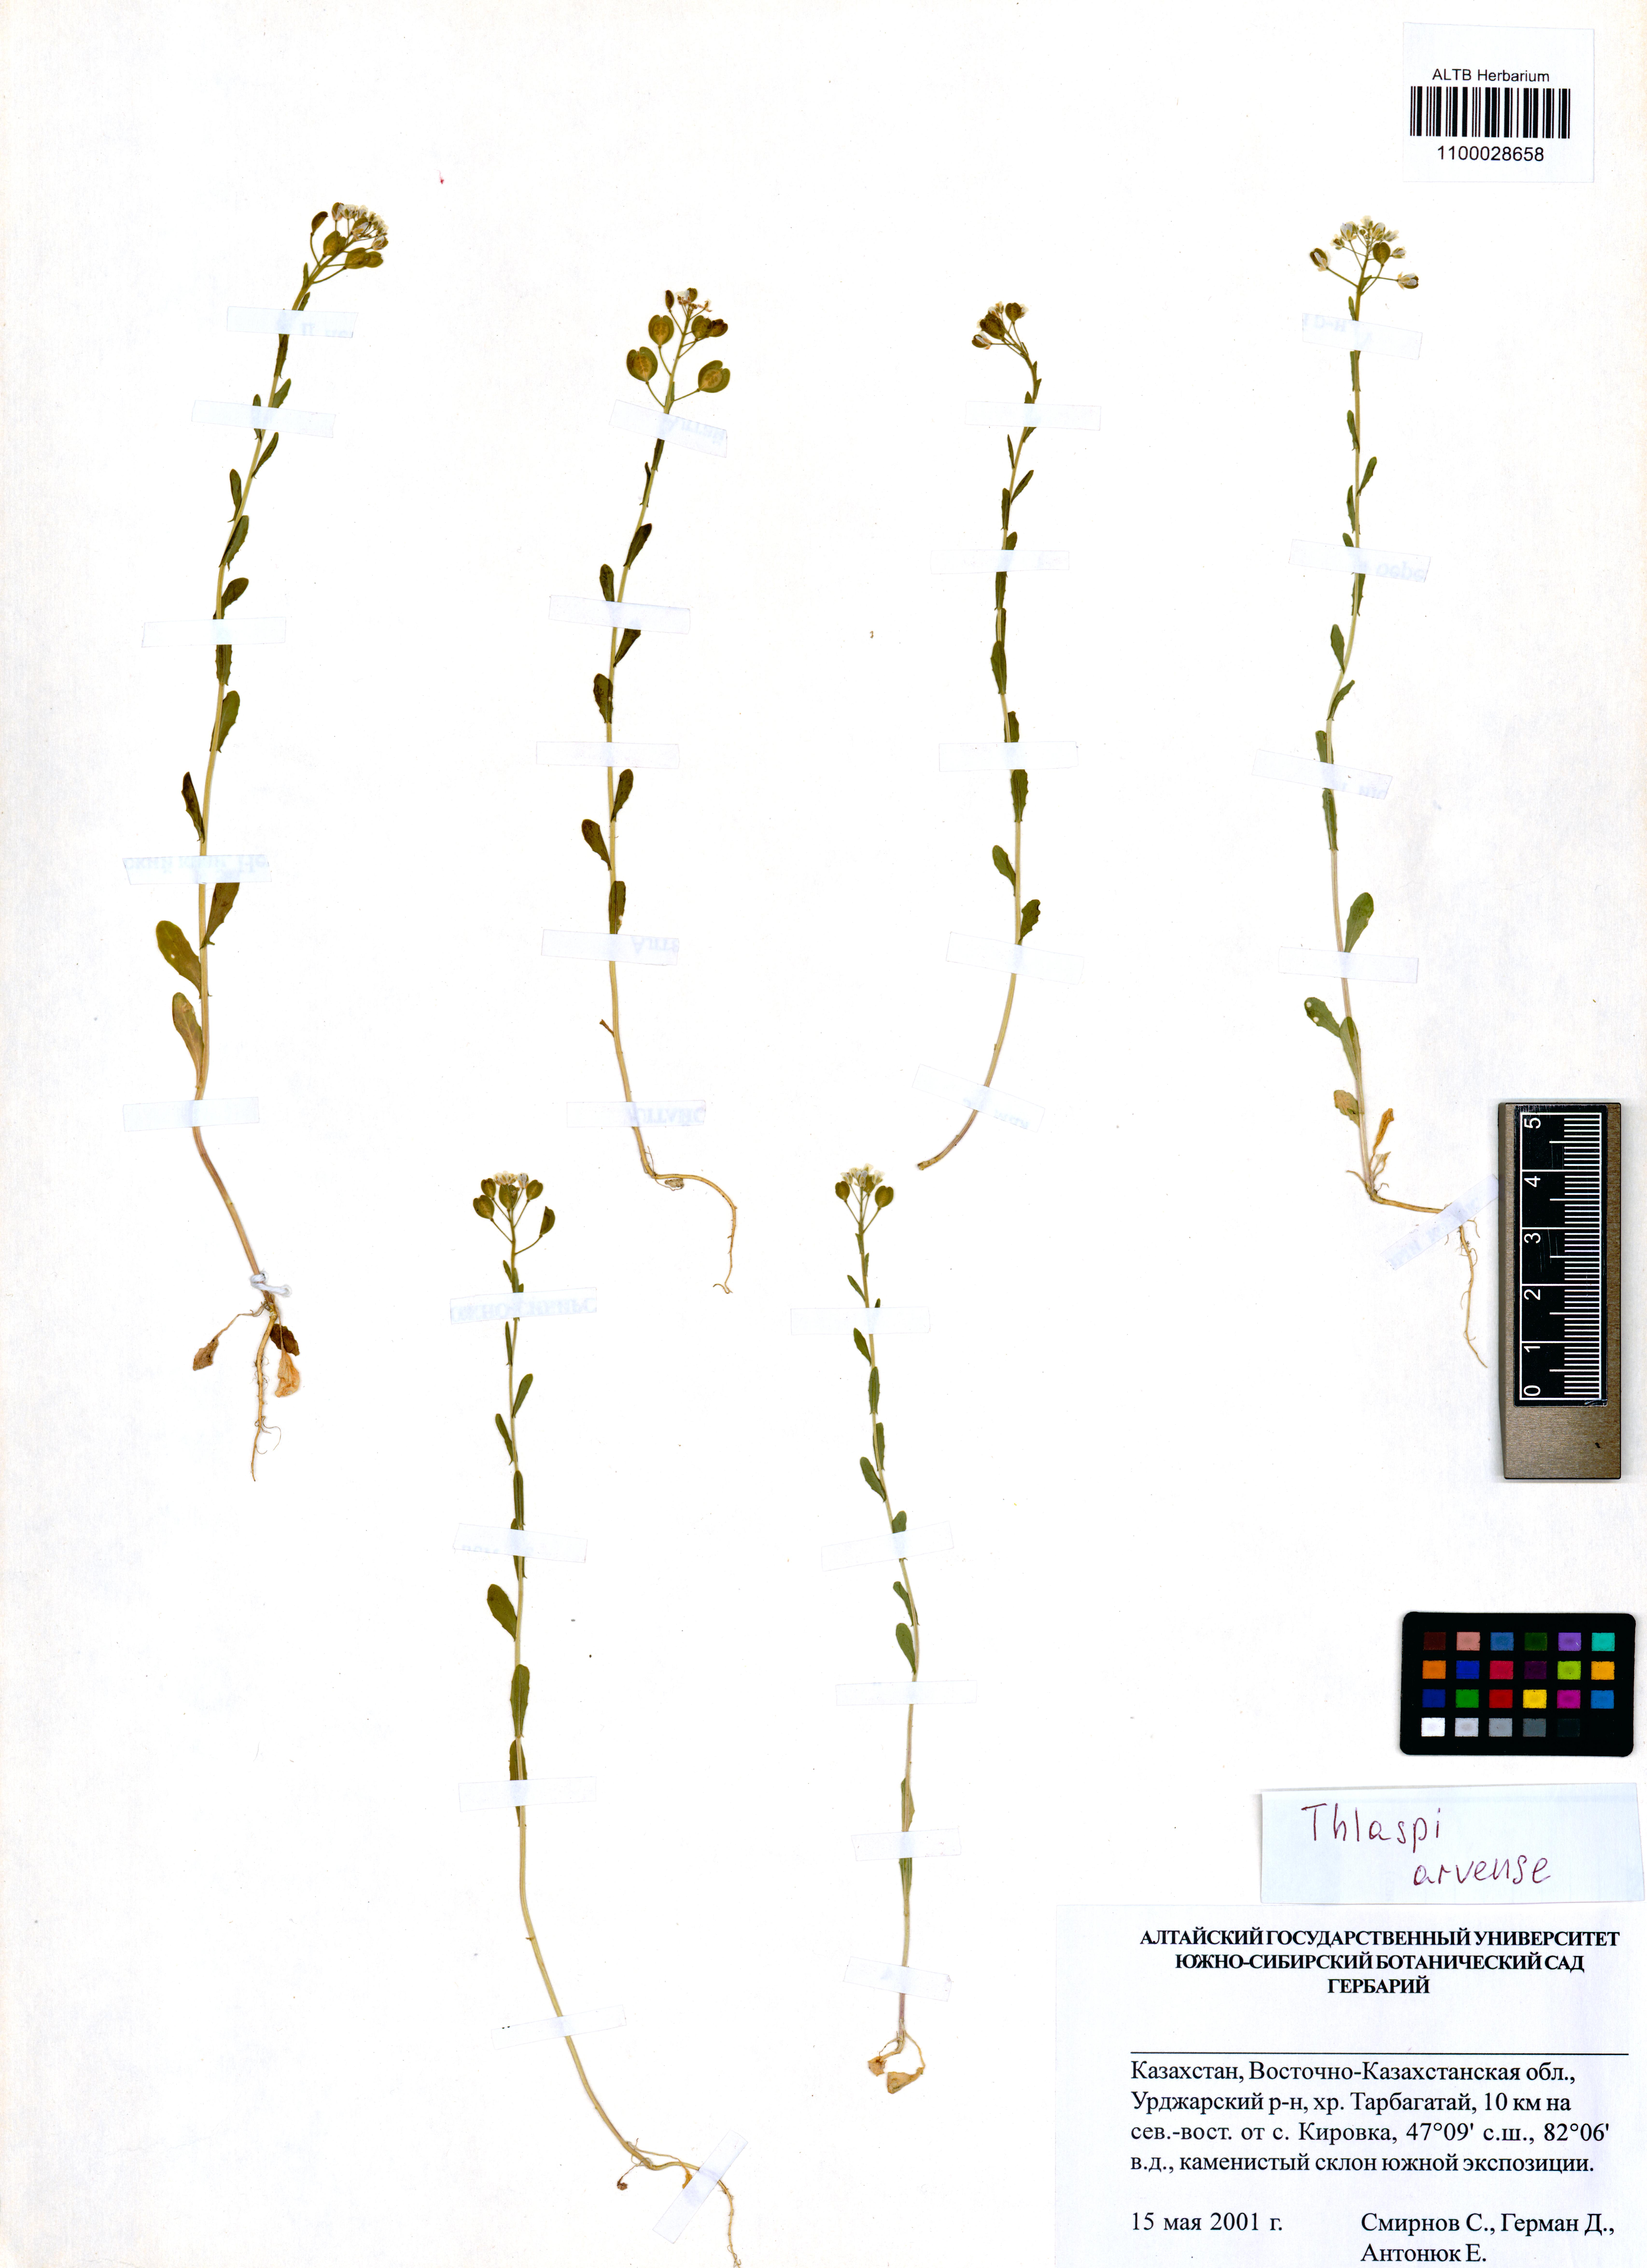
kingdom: Plantae
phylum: Tracheophyta
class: Magnoliopsida
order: Brassicales
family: Brassicaceae
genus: Thlaspi
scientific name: Thlaspi arvense
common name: Field pennycress
